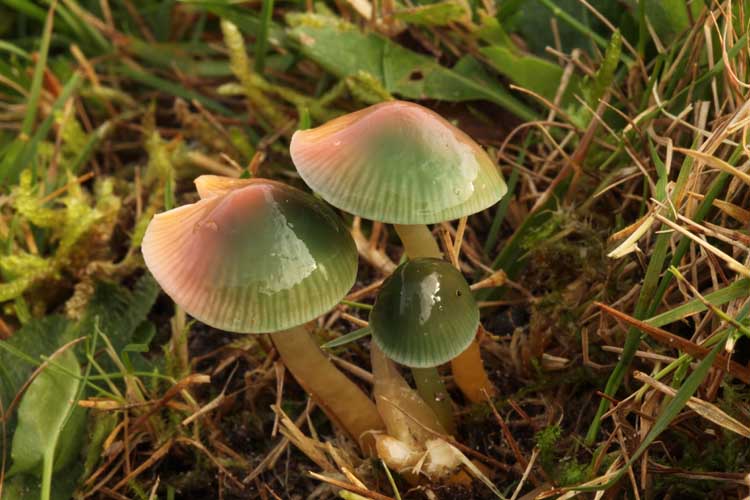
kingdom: Fungi
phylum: Basidiomycota
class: Agaricomycetes
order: Agaricales
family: Hygrophoraceae
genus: Gliophorus
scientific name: Gliophorus psittacinus
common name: papegøje-vokshat
